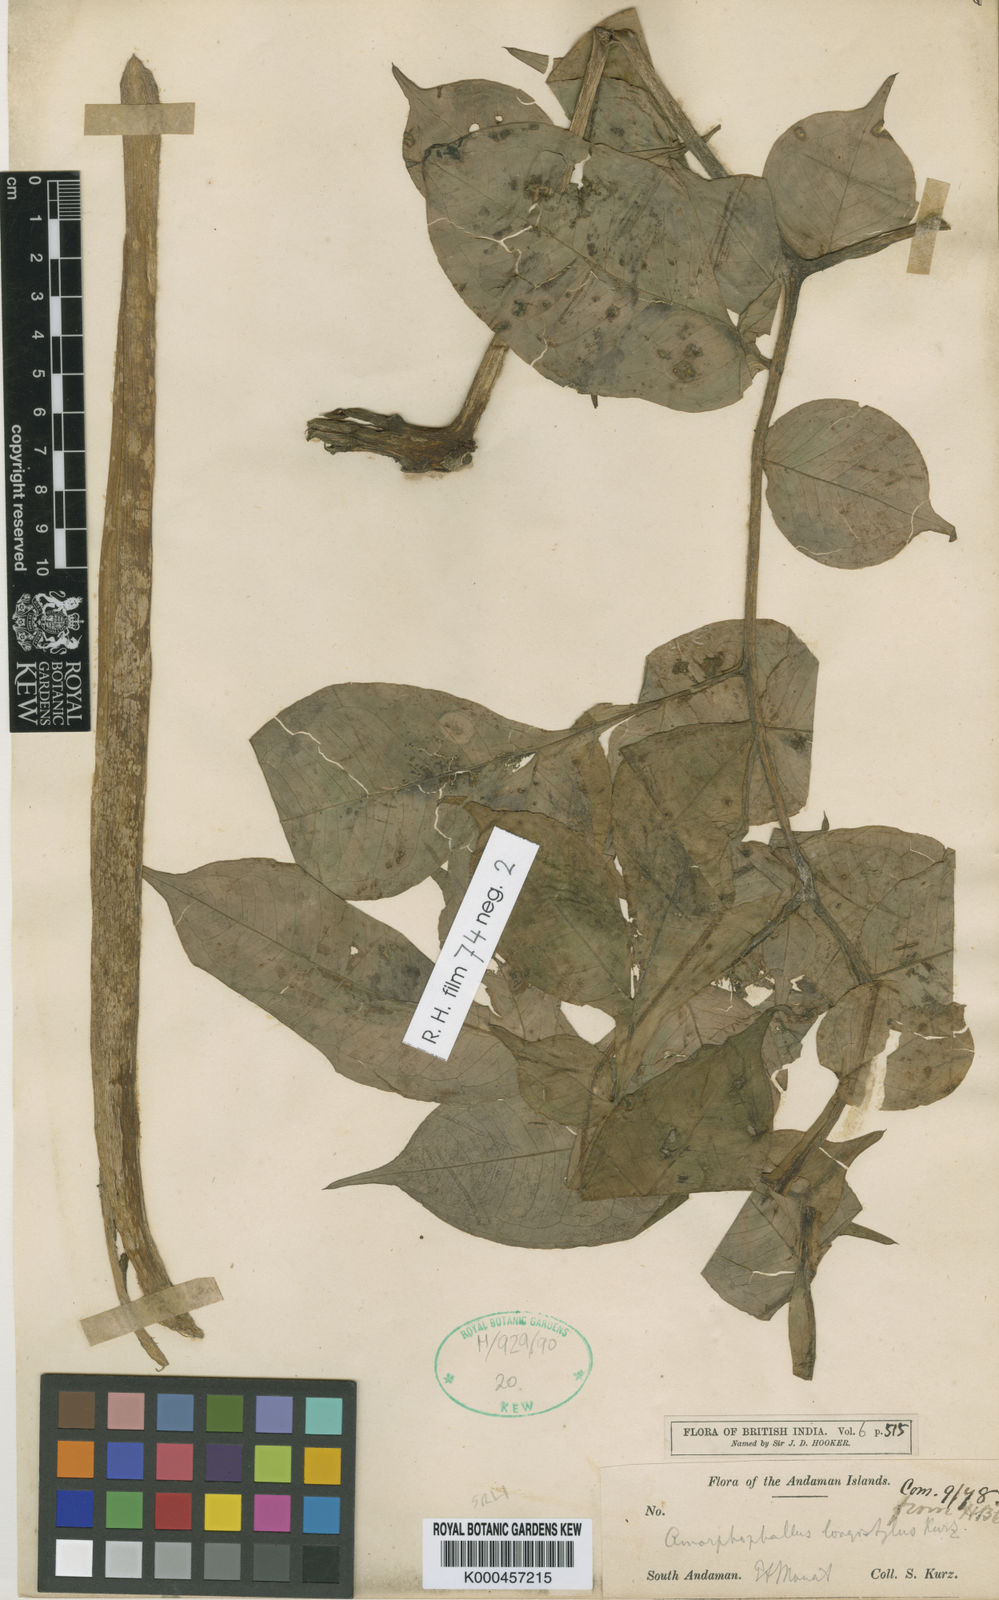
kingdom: Plantae
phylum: Tracheophyta
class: Liliopsida
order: Alismatales
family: Araceae
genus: Amorphophallus
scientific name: Amorphophallus longistylus
